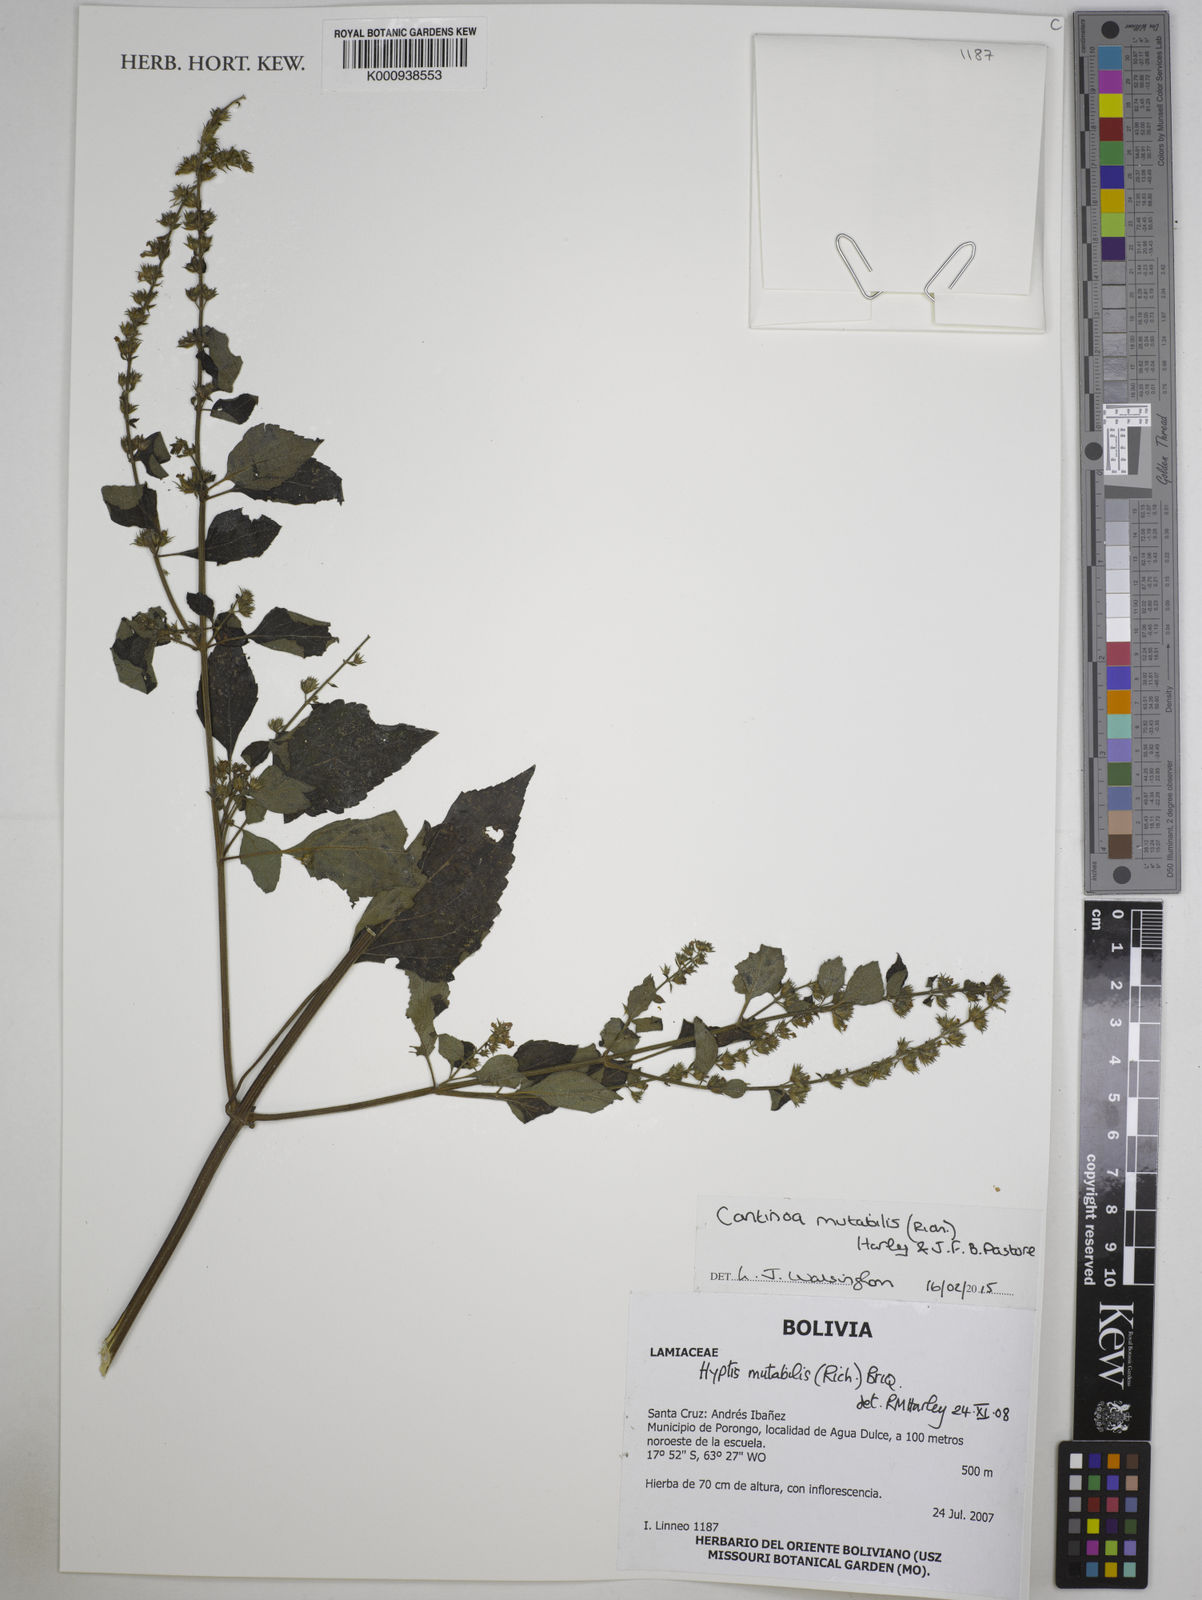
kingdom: Plantae
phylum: Tracheophyta
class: Magnoliopsida
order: Lamiales
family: Lamiaceae
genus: Cantinoa
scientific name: Cantinoa mutabilis
